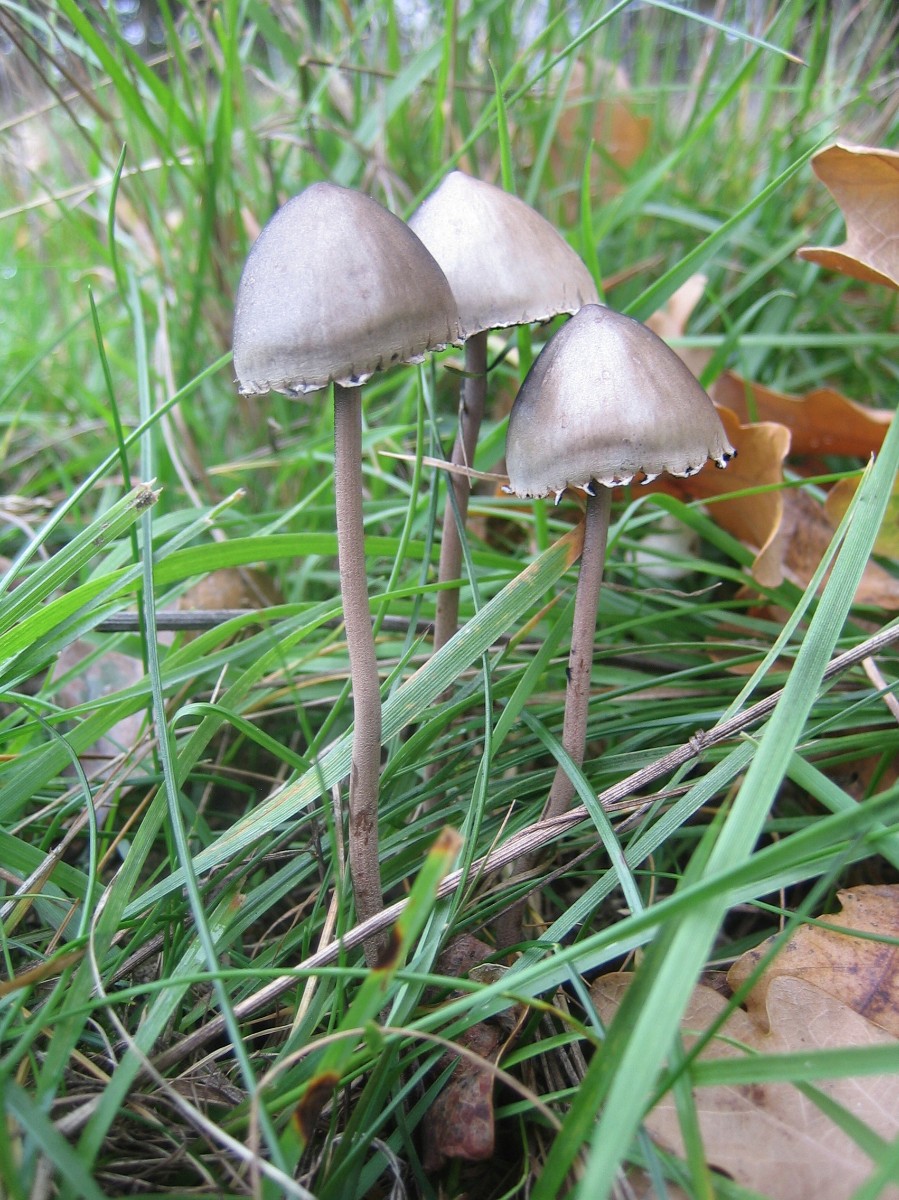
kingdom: Fungi
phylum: Basidiomycota
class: Agaricomycetes
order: Agaricales
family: Bolbitiaceae
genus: Panaeolus
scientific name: Panaeolus papilionaceus
